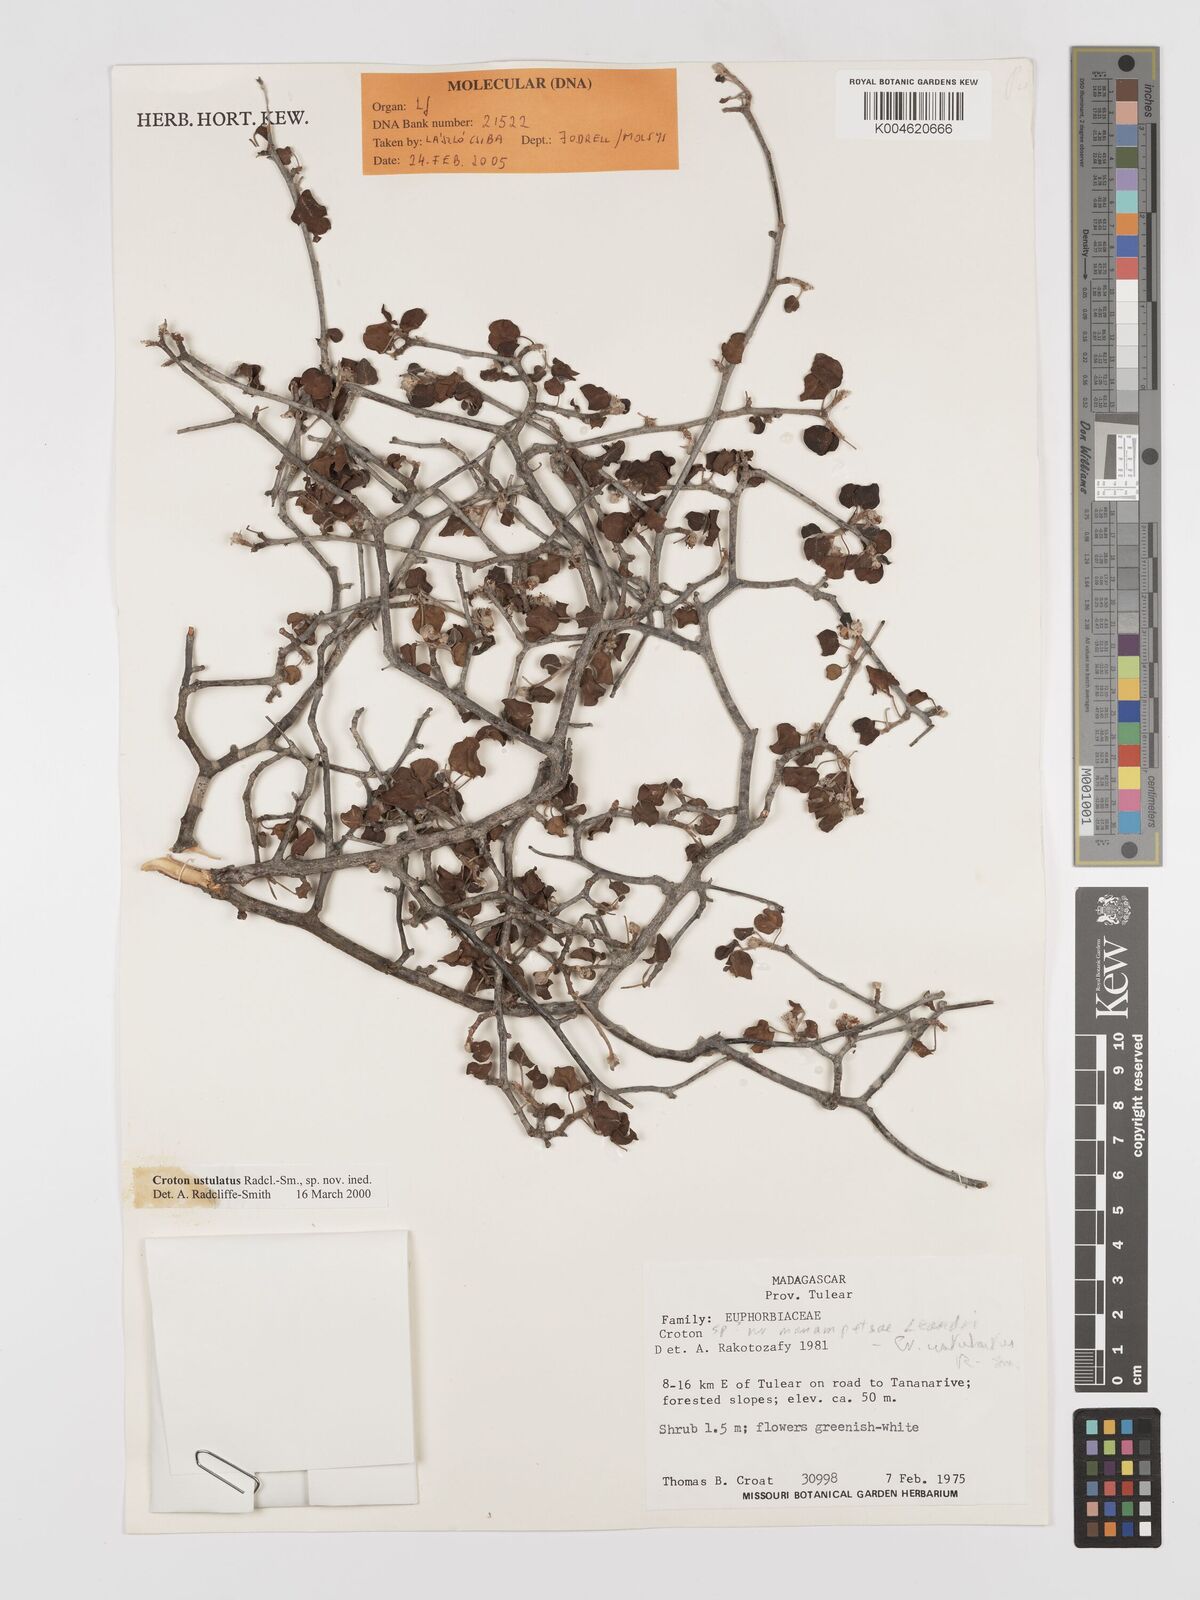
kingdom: Plantae
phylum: Tracheophyta
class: Magnoliopsida
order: Malpighiales
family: Euphorbiaceae
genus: Croton
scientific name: Croton ustulatus
